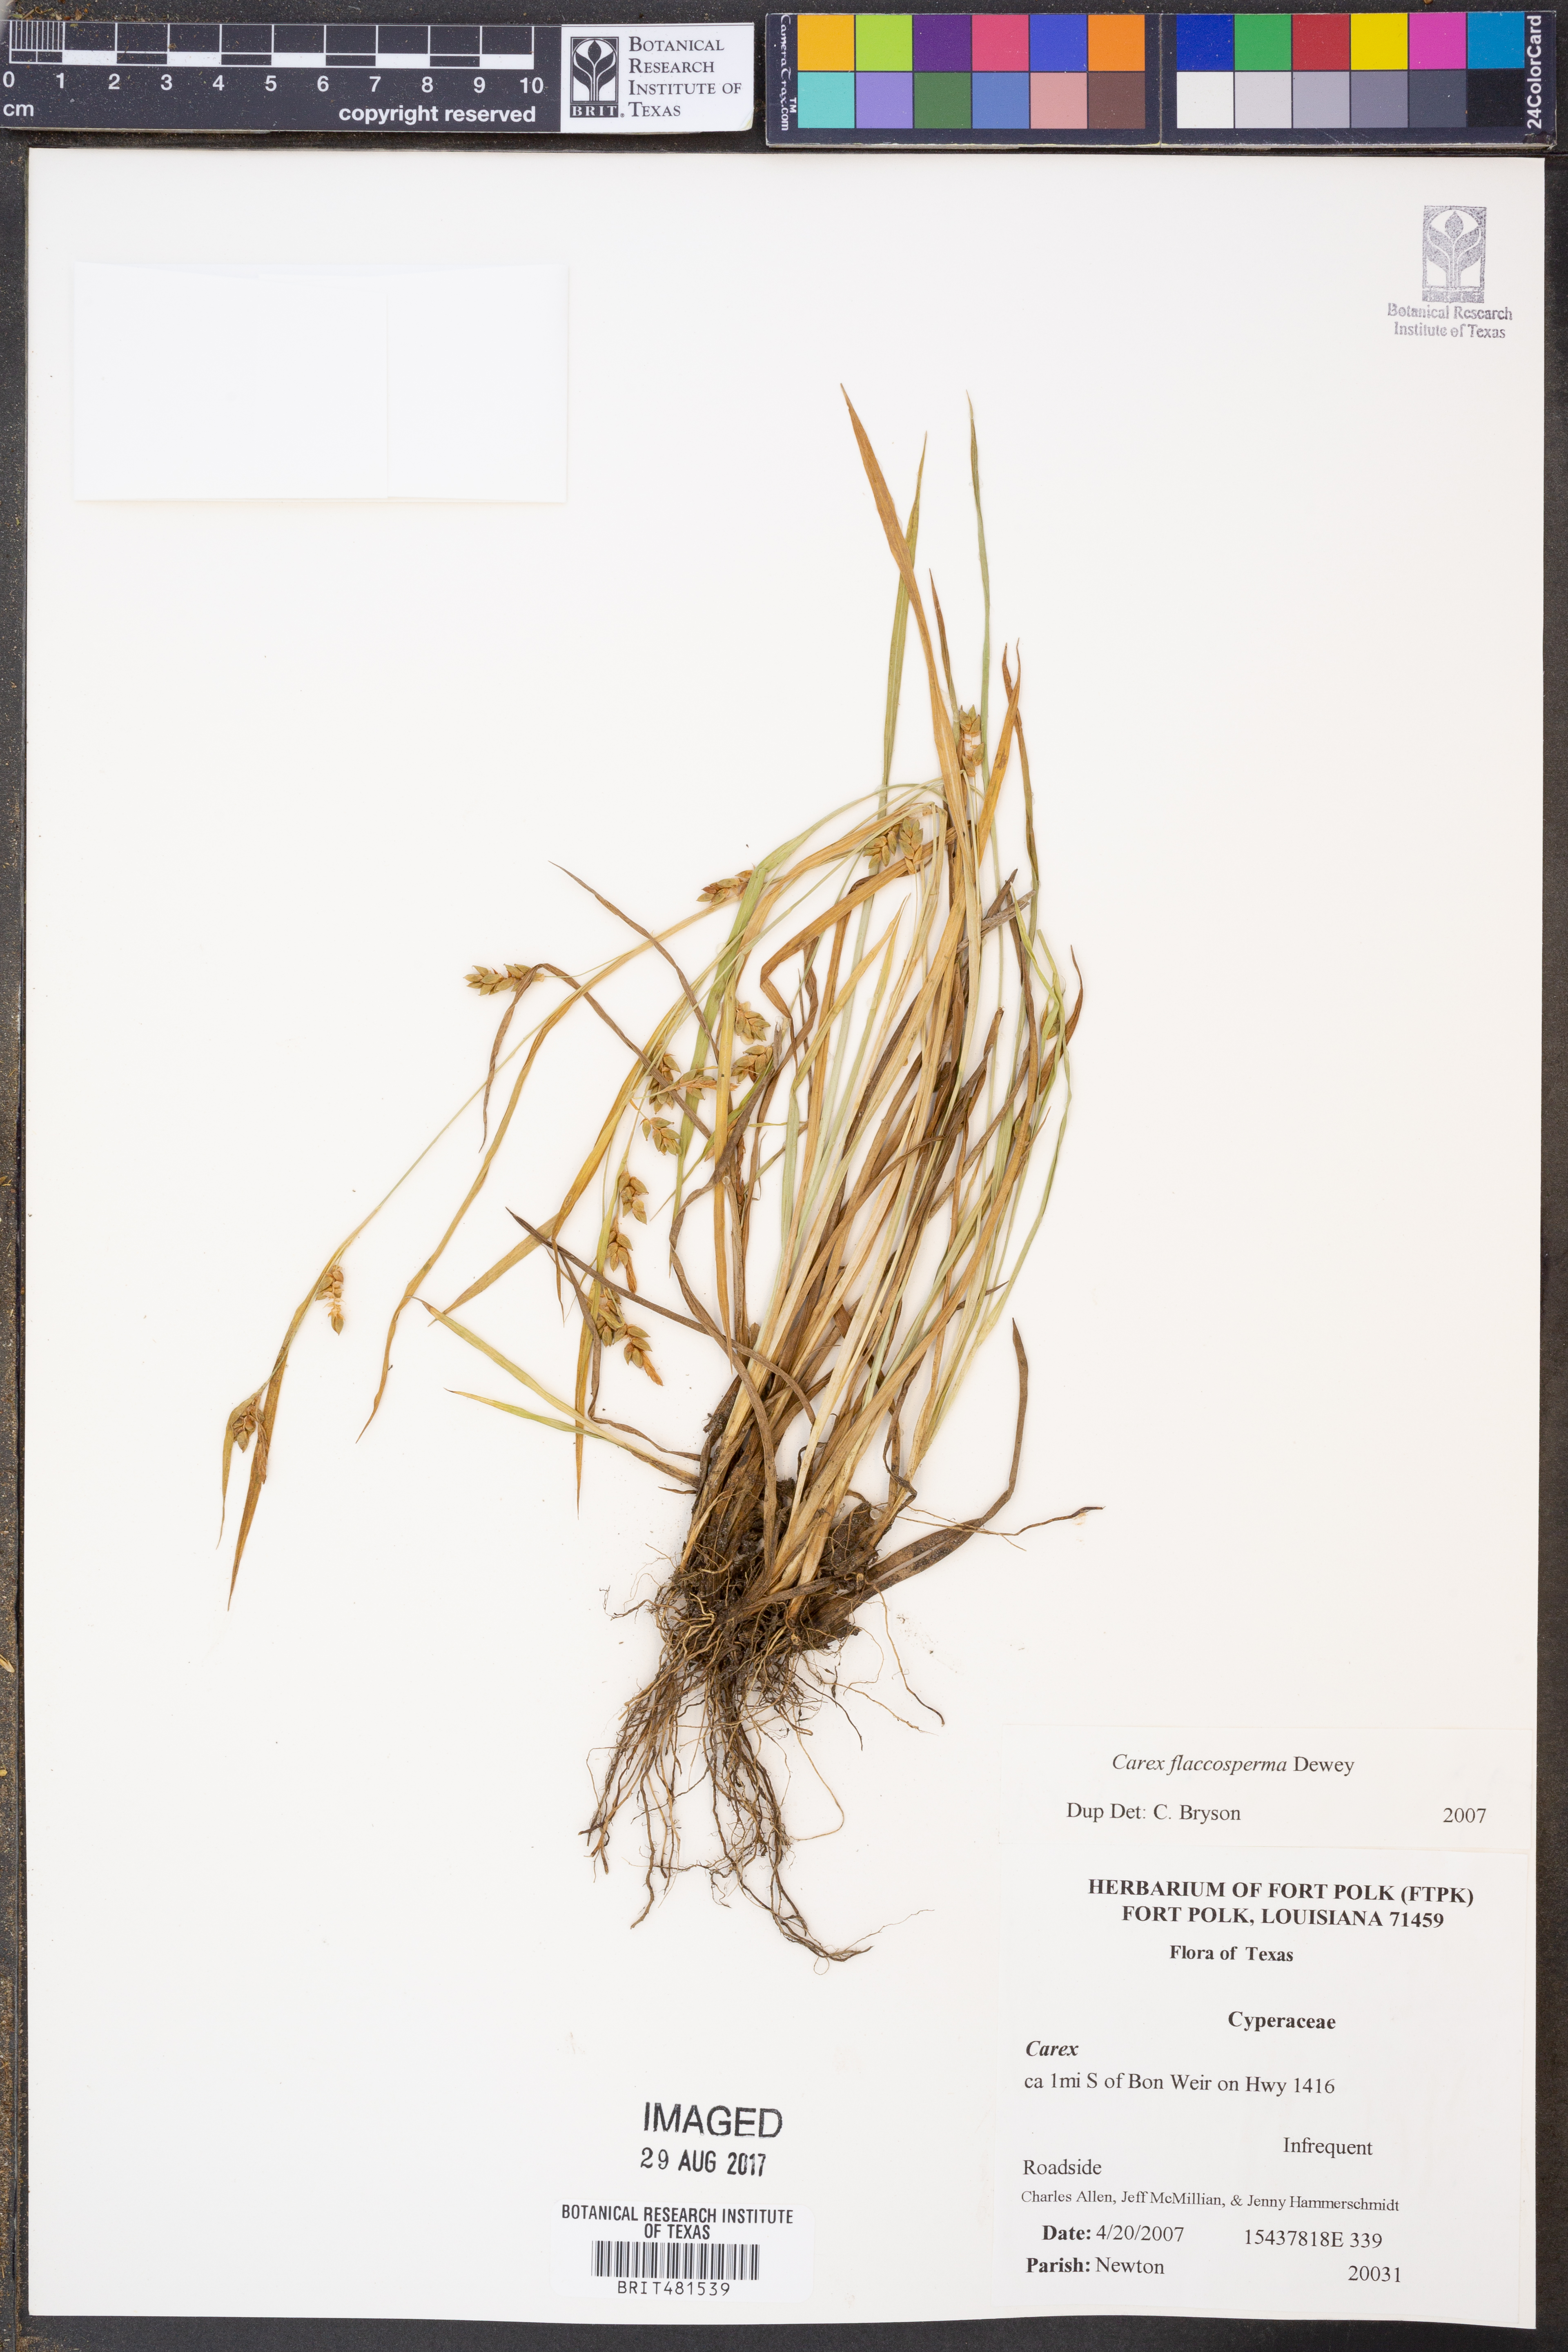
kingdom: Plantae
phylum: Tracheophyta
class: Liliopsida
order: Poales
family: Cyperaceae
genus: Carex
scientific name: Carex flaccosperma
